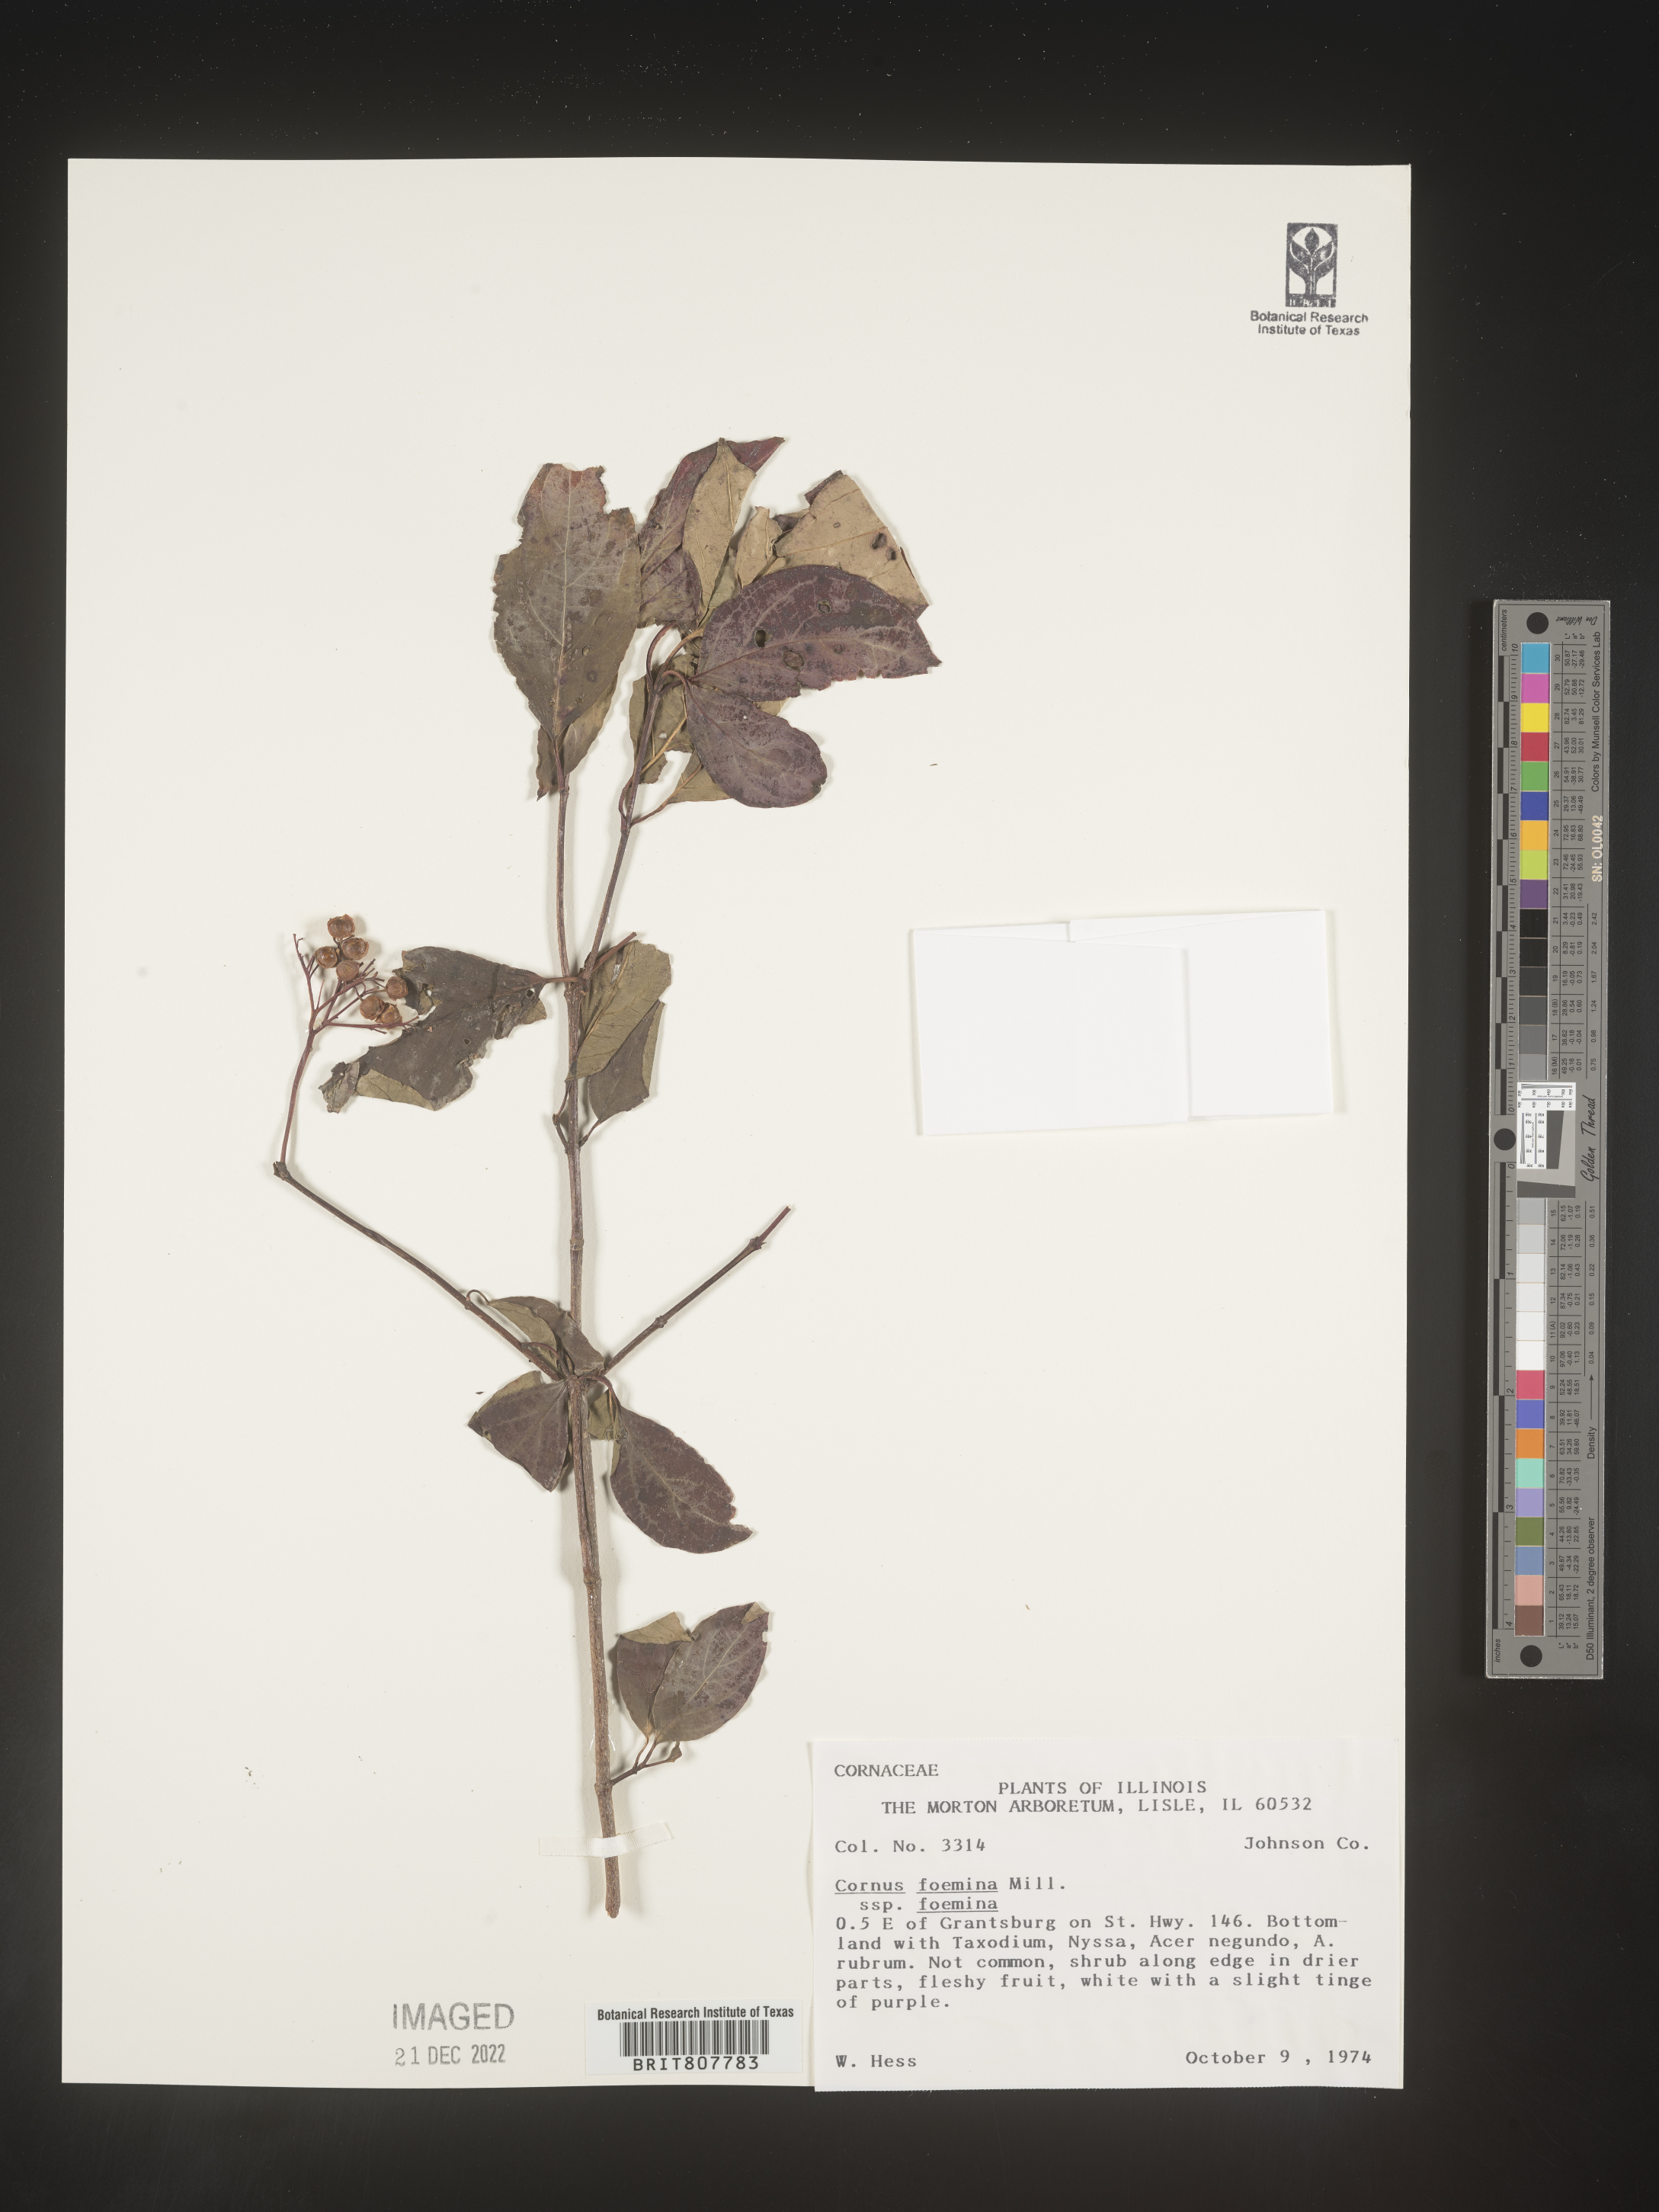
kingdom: Plantae
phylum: Tracheophyta
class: Magnoliopsida
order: Cornales
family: Cornaceae
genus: Cornus
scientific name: Cornus foemina
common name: Swamp dogwood
